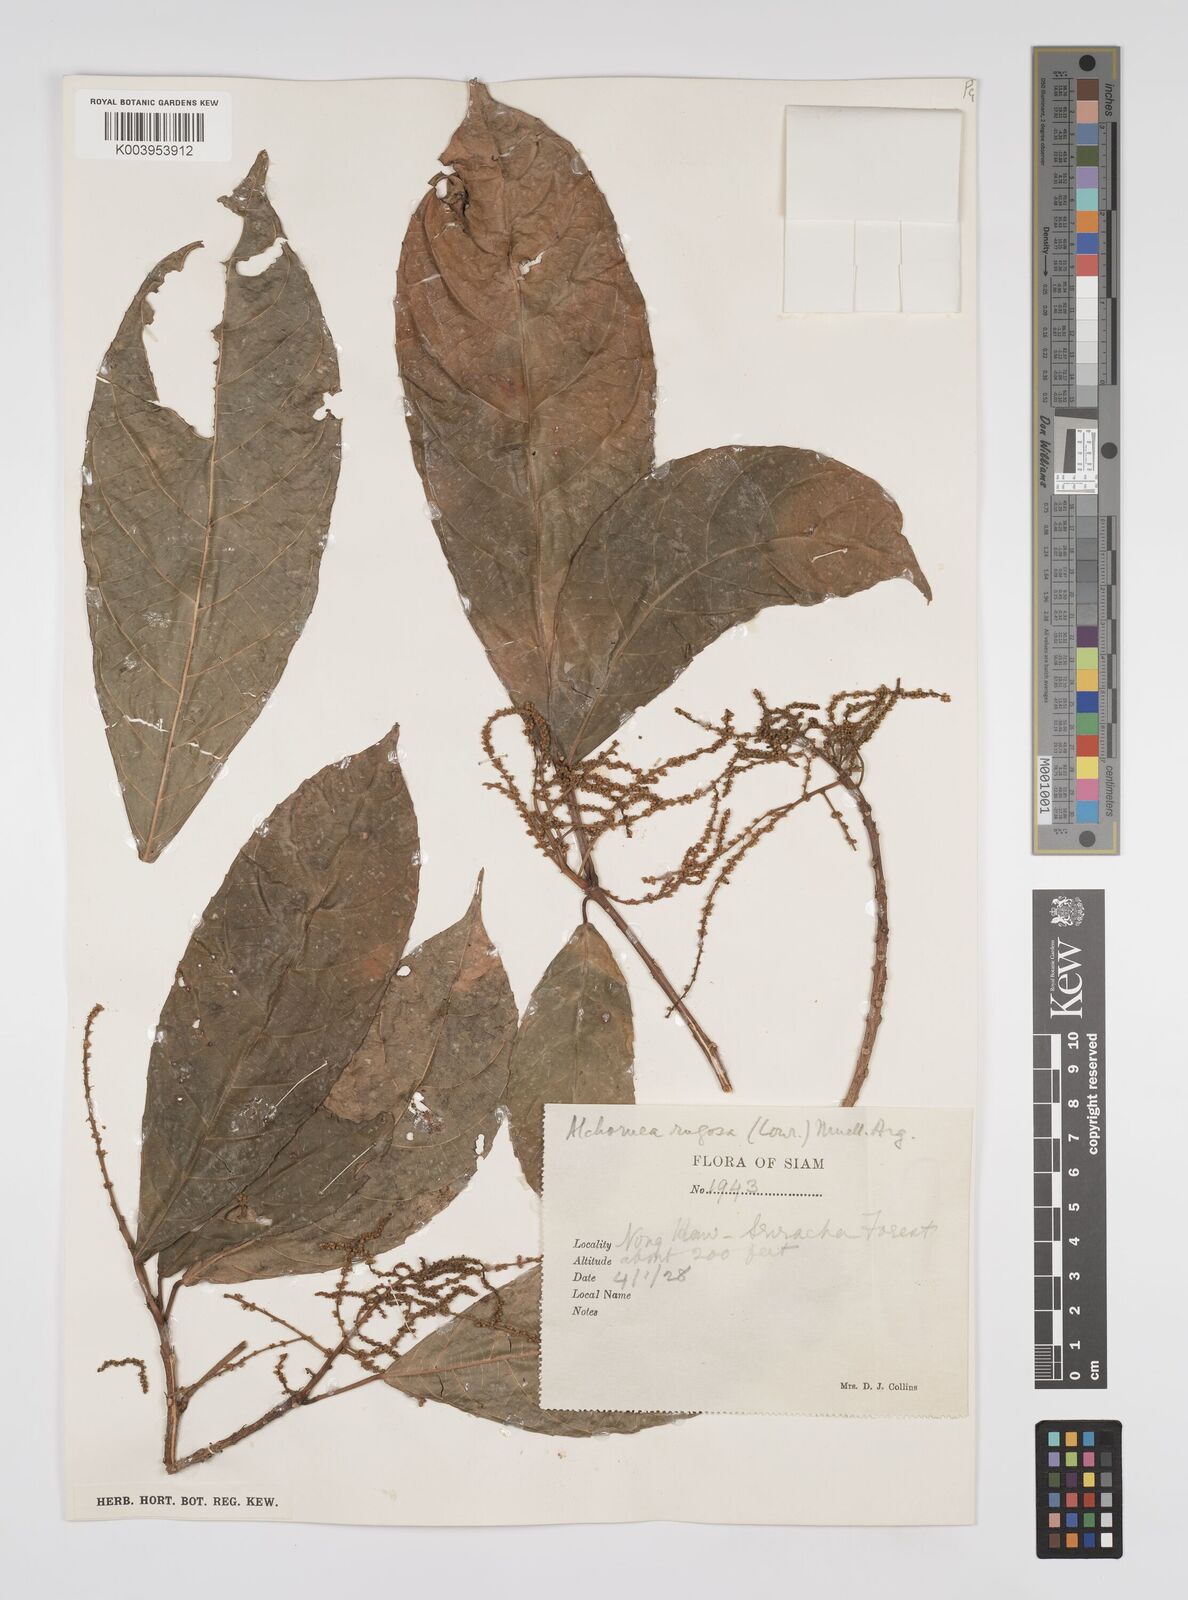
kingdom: Plantae
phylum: Tracheophyta
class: Magnoliopsida
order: Malpighiales
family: Euphorbiaceae
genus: Alchornea
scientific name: Alchornea rugosa
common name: Alchorntree
